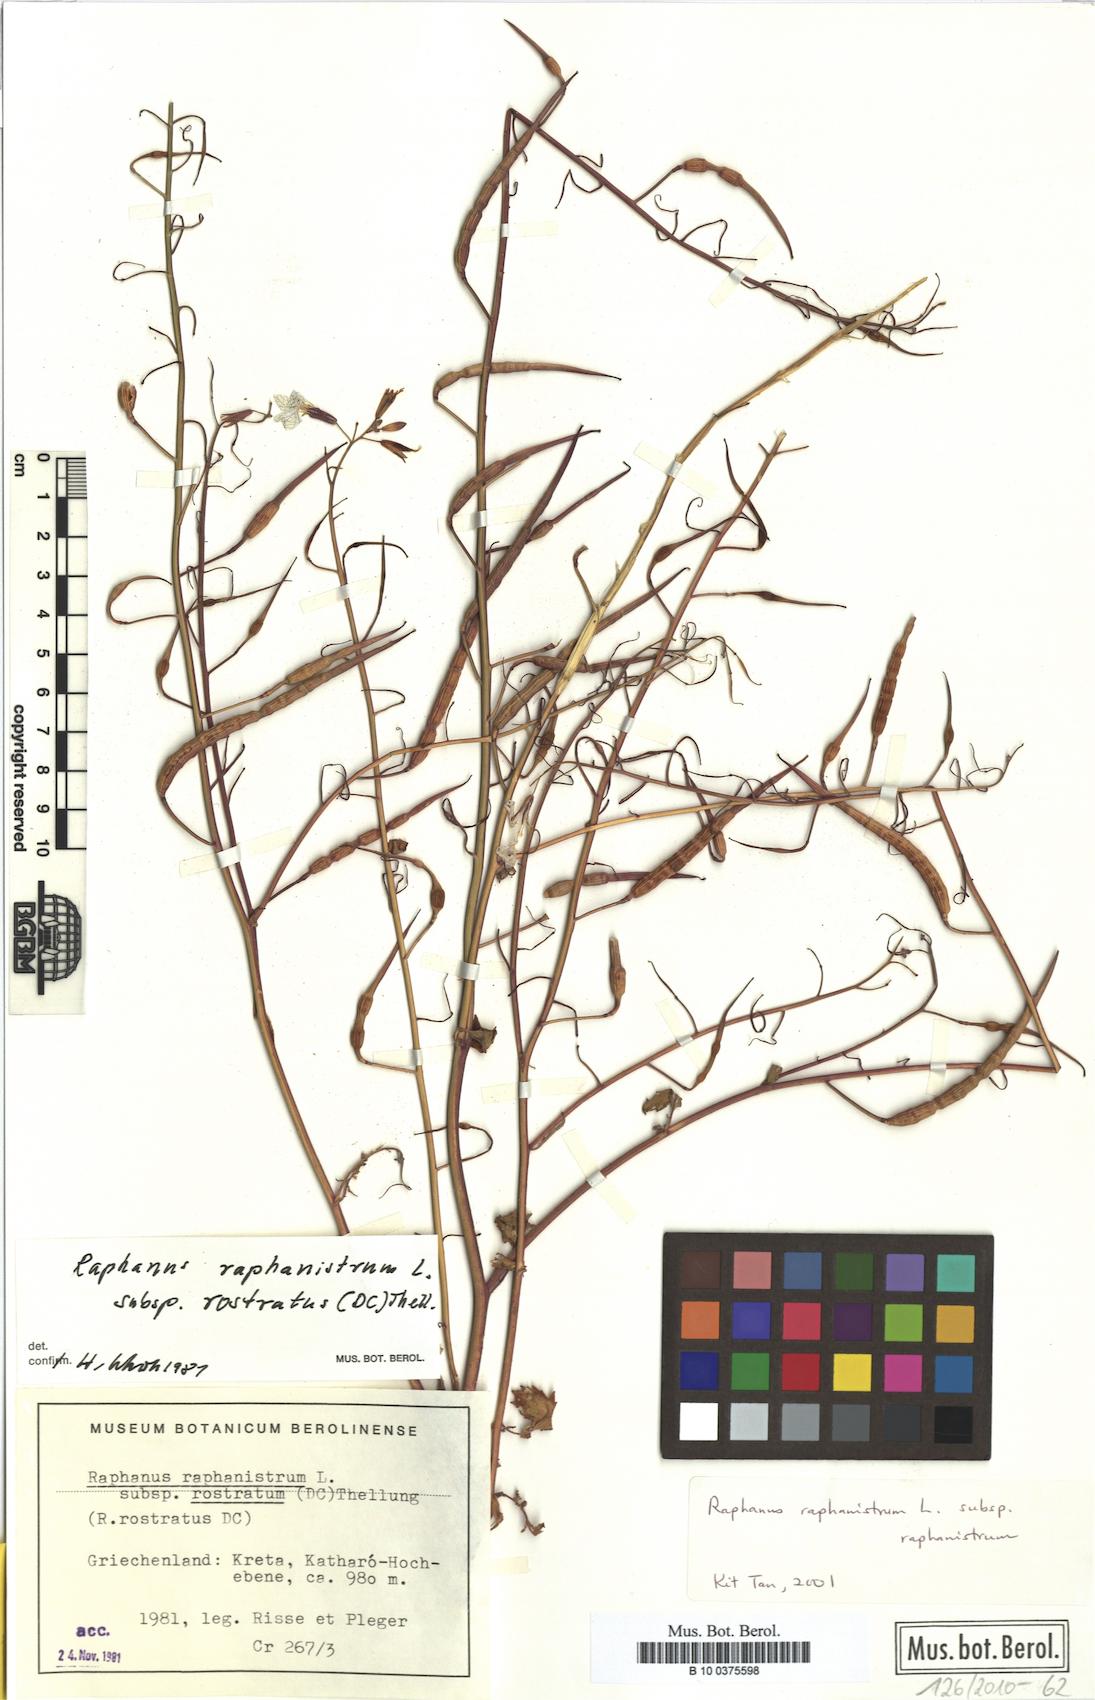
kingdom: Plantae
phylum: Tracheophyta
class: Magnoliopsida
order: Brassicales
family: Brassicaceae
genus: Raphanus
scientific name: Raphanus raphanistrum
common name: Wild radish
